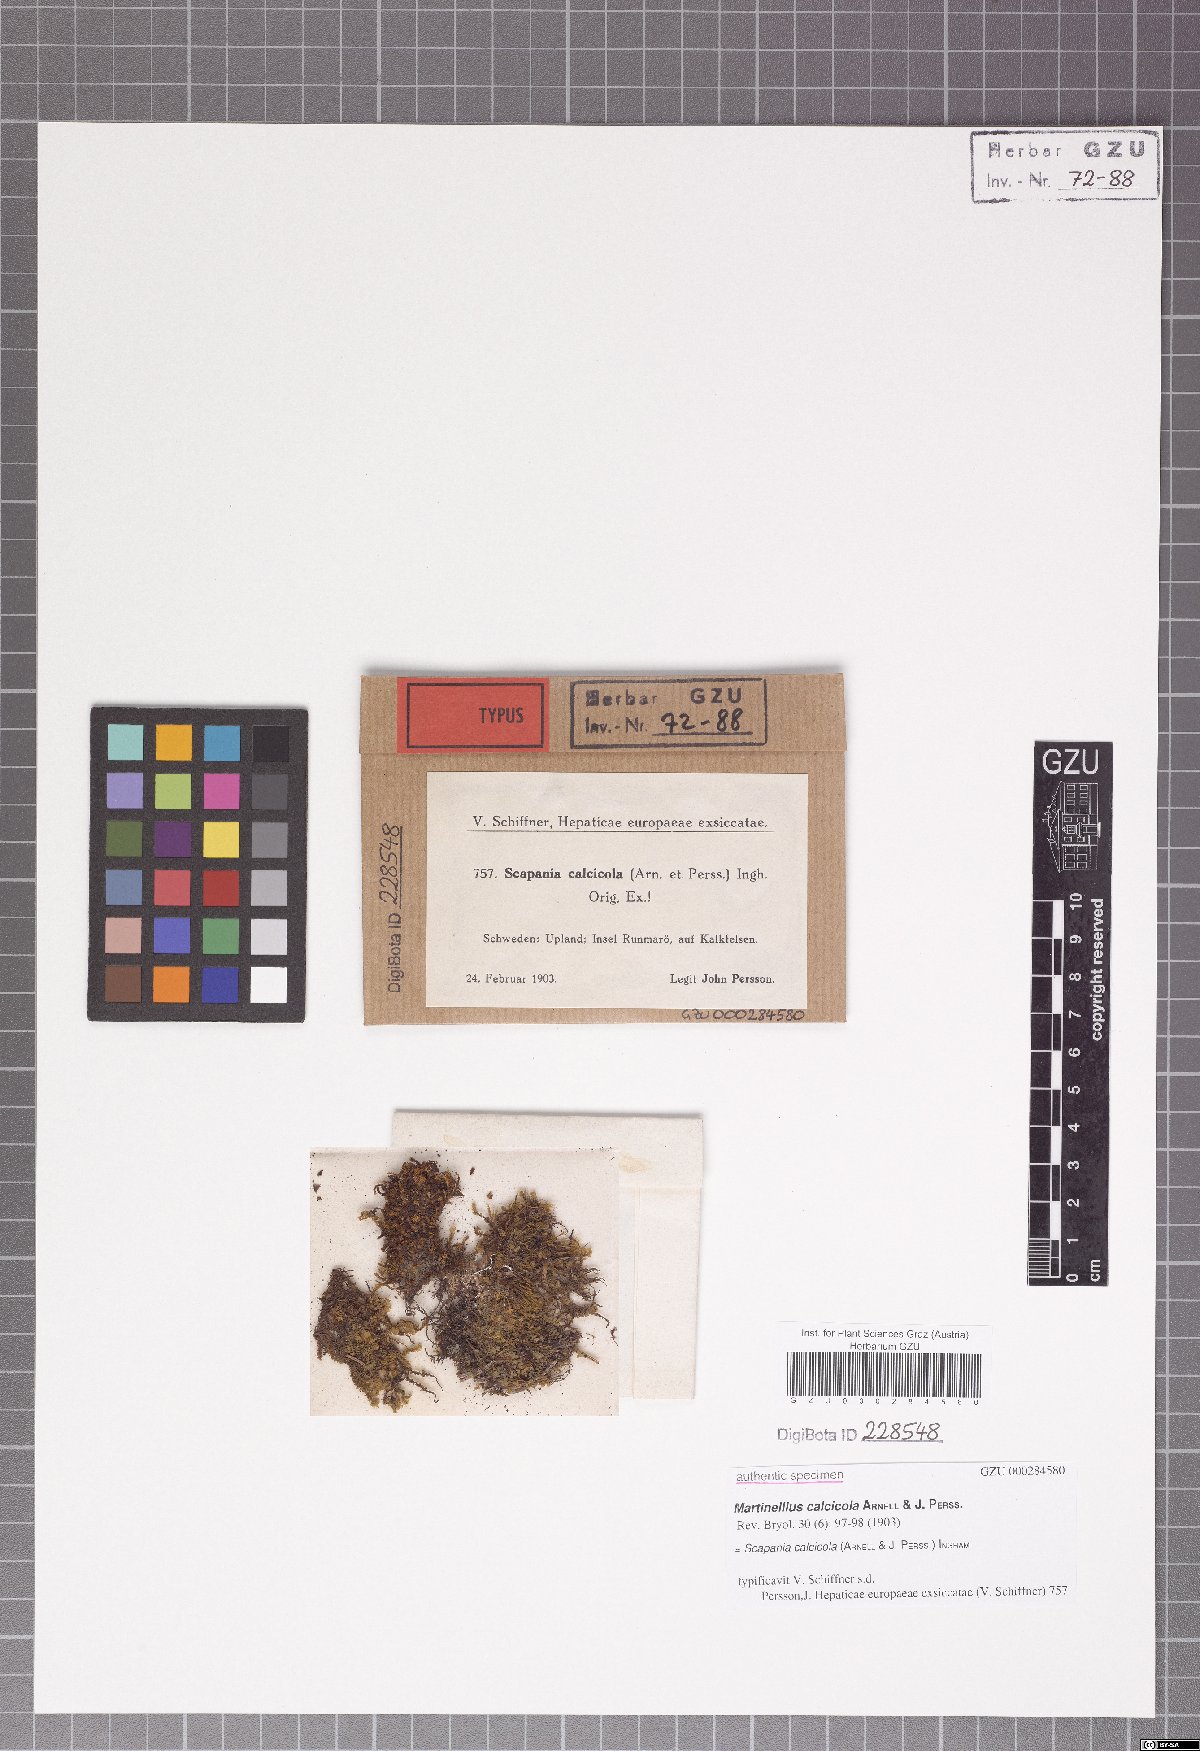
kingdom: Plantae
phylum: Marchantiophyta
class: Jungermanniopsida
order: Jungermanniales
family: Scapaniaceae
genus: Scapania
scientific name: Scapania calcicola
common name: Calcicolous earwort
